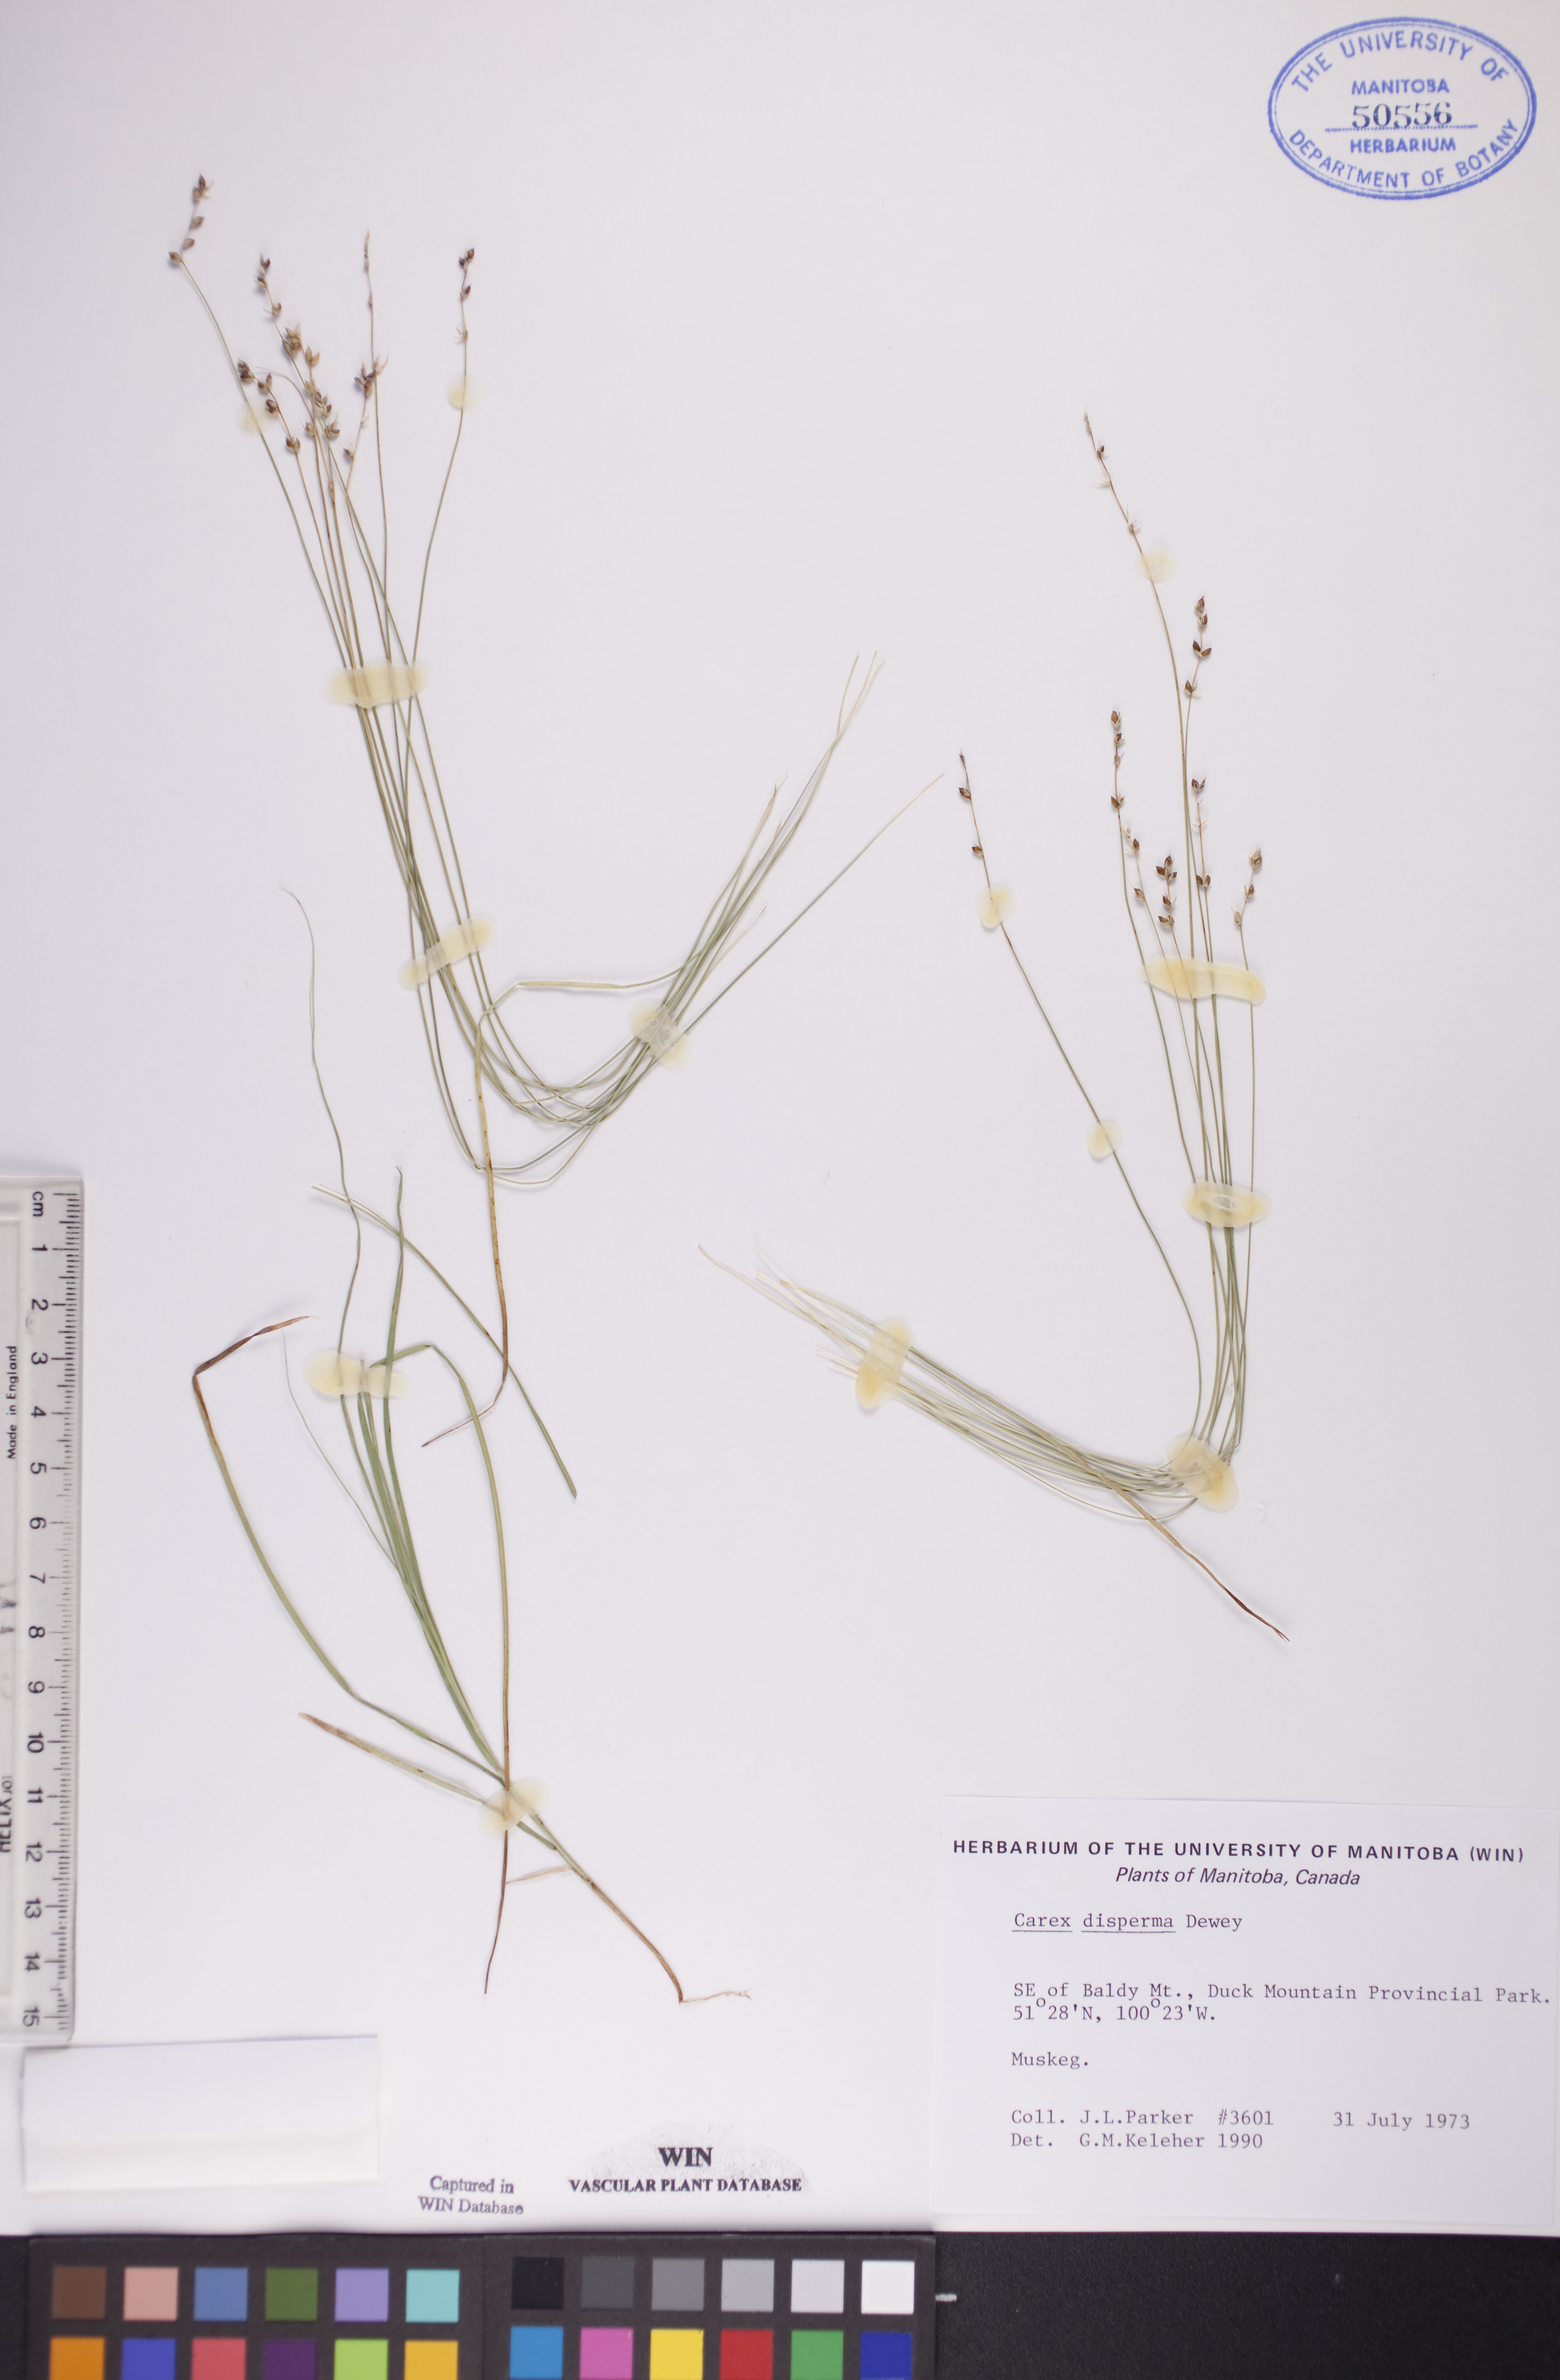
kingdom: Plantae
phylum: Tracheophyta
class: Liliopsida
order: Poales
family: Cyperaceae
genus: Carex
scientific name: Carex disperma
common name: Short-leaved sedge
